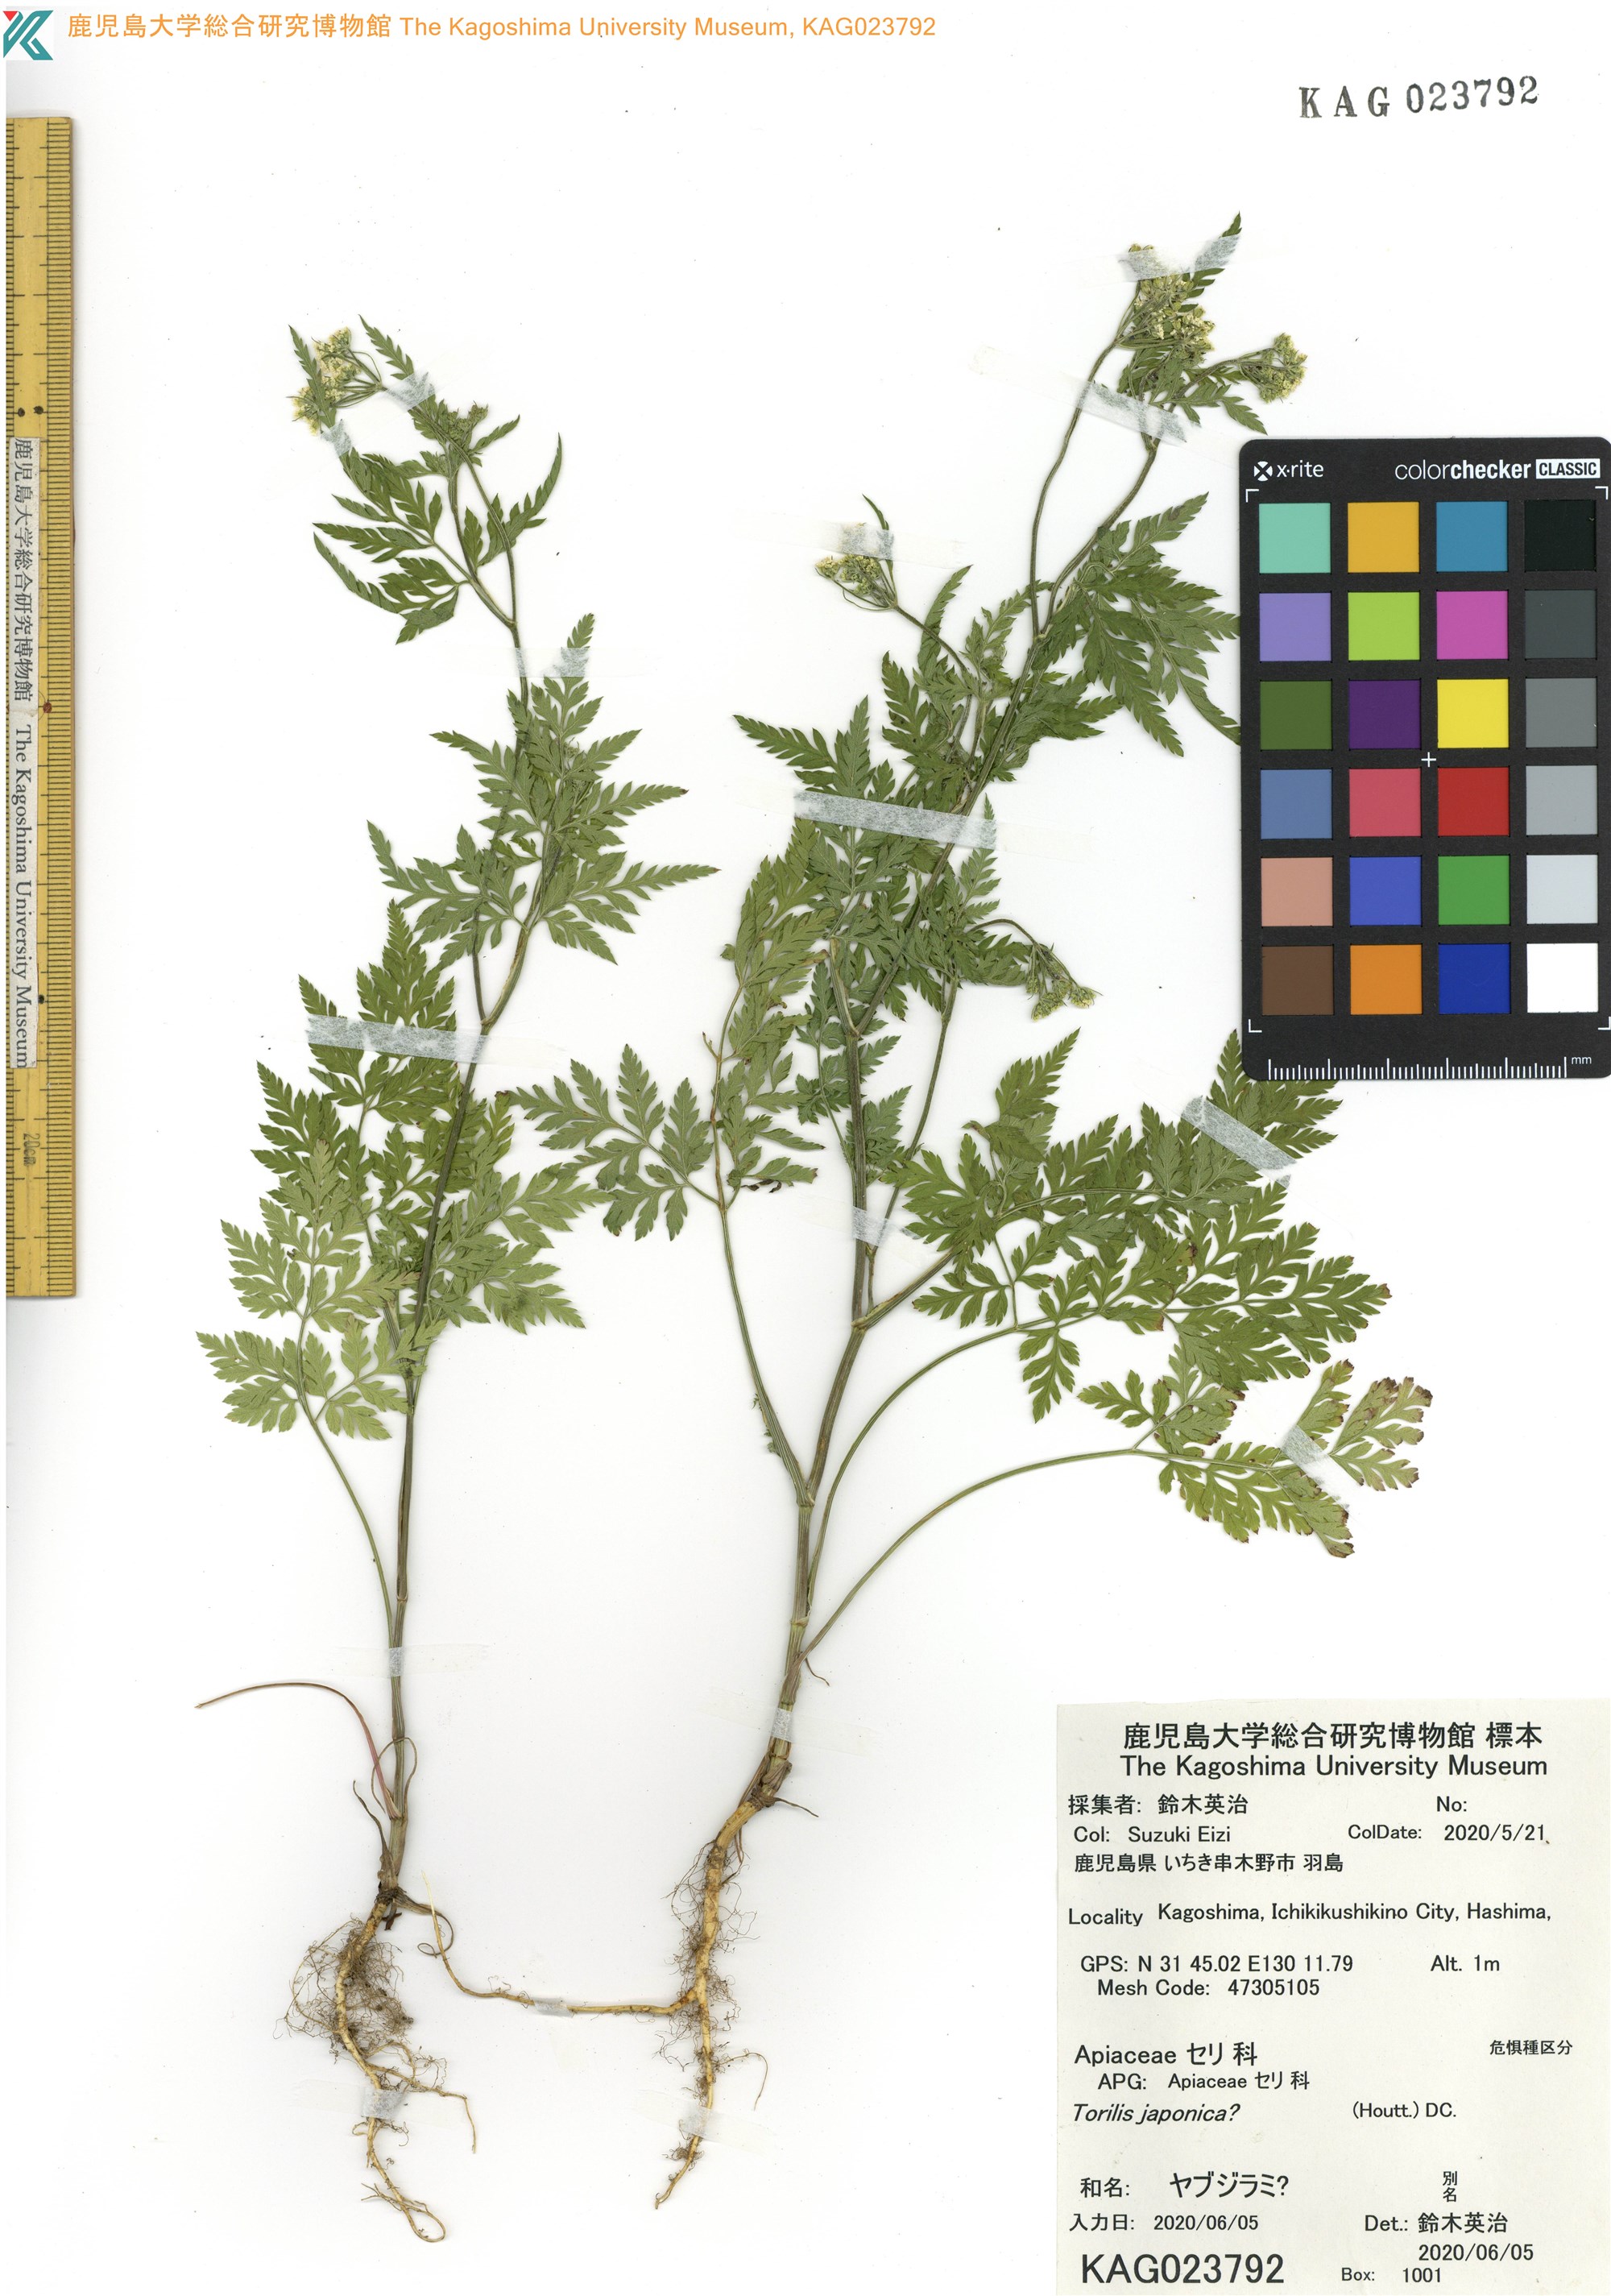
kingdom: Plantae
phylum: Tracheophyta
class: Magnoliopsida
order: Apiales
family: Apiaceae
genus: Torilis
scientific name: Torilis japonica
